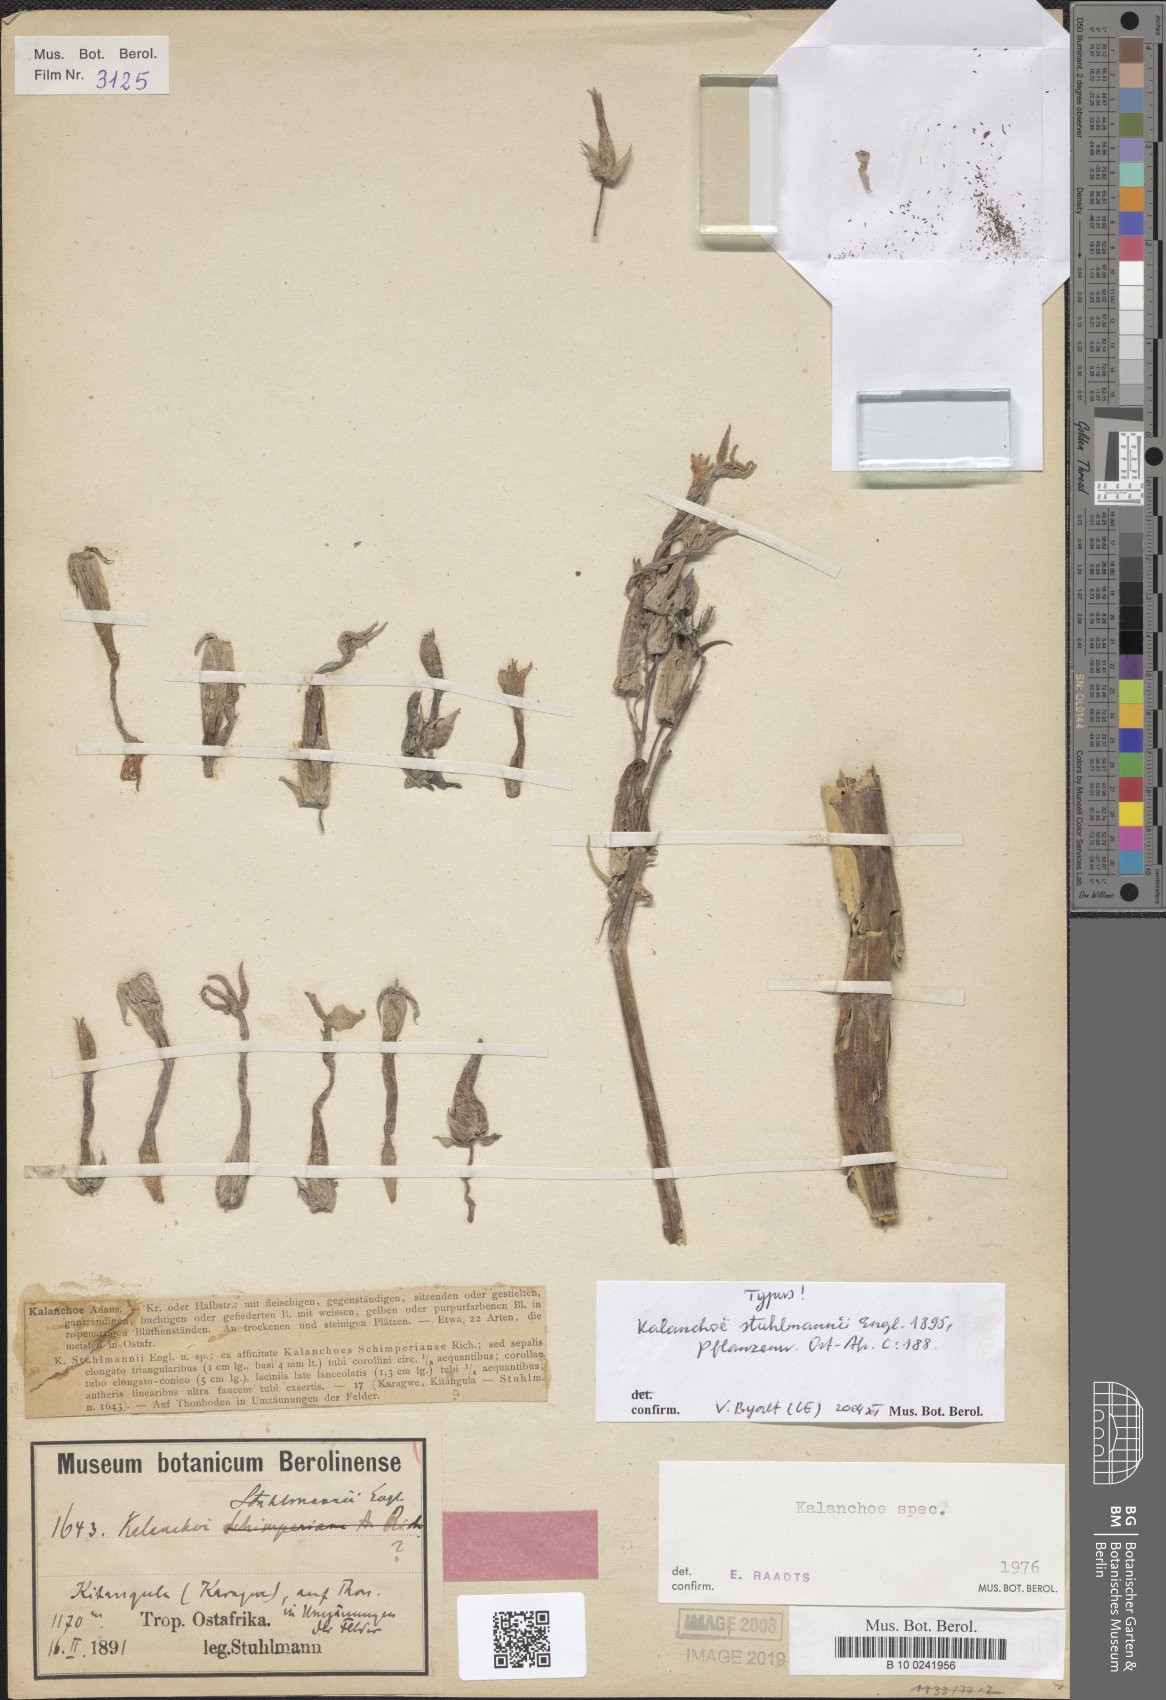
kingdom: Plantae
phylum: Tracheophyta
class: Magnoliopsida
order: Saxifragales
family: Crassulaceae
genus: Kalanchoe
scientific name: Kalanchoe marmorata
